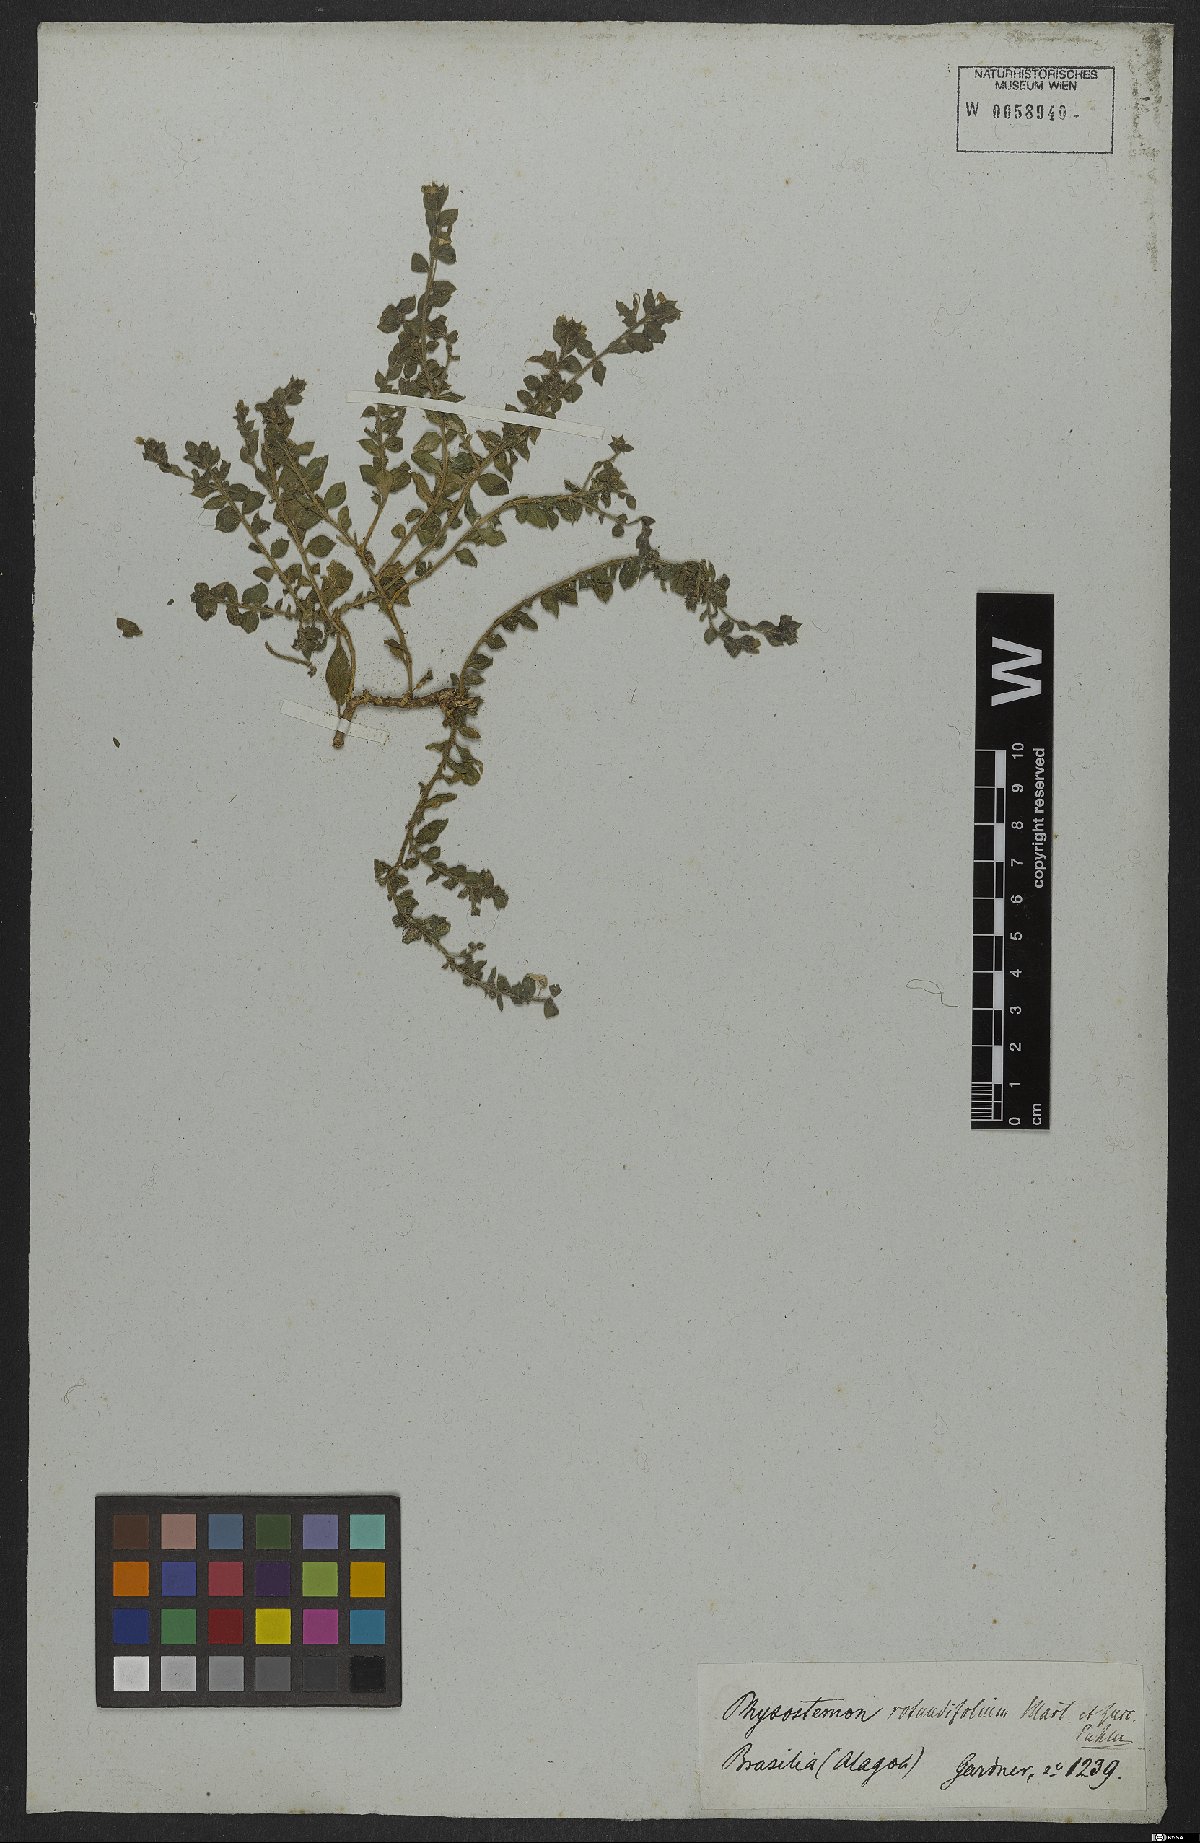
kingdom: Plantae
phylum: Tracheophyta
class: Magnoliopsida
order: Brassicales
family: Cleomaceae
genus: Physostemon
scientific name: Physostemon rotundifolius
